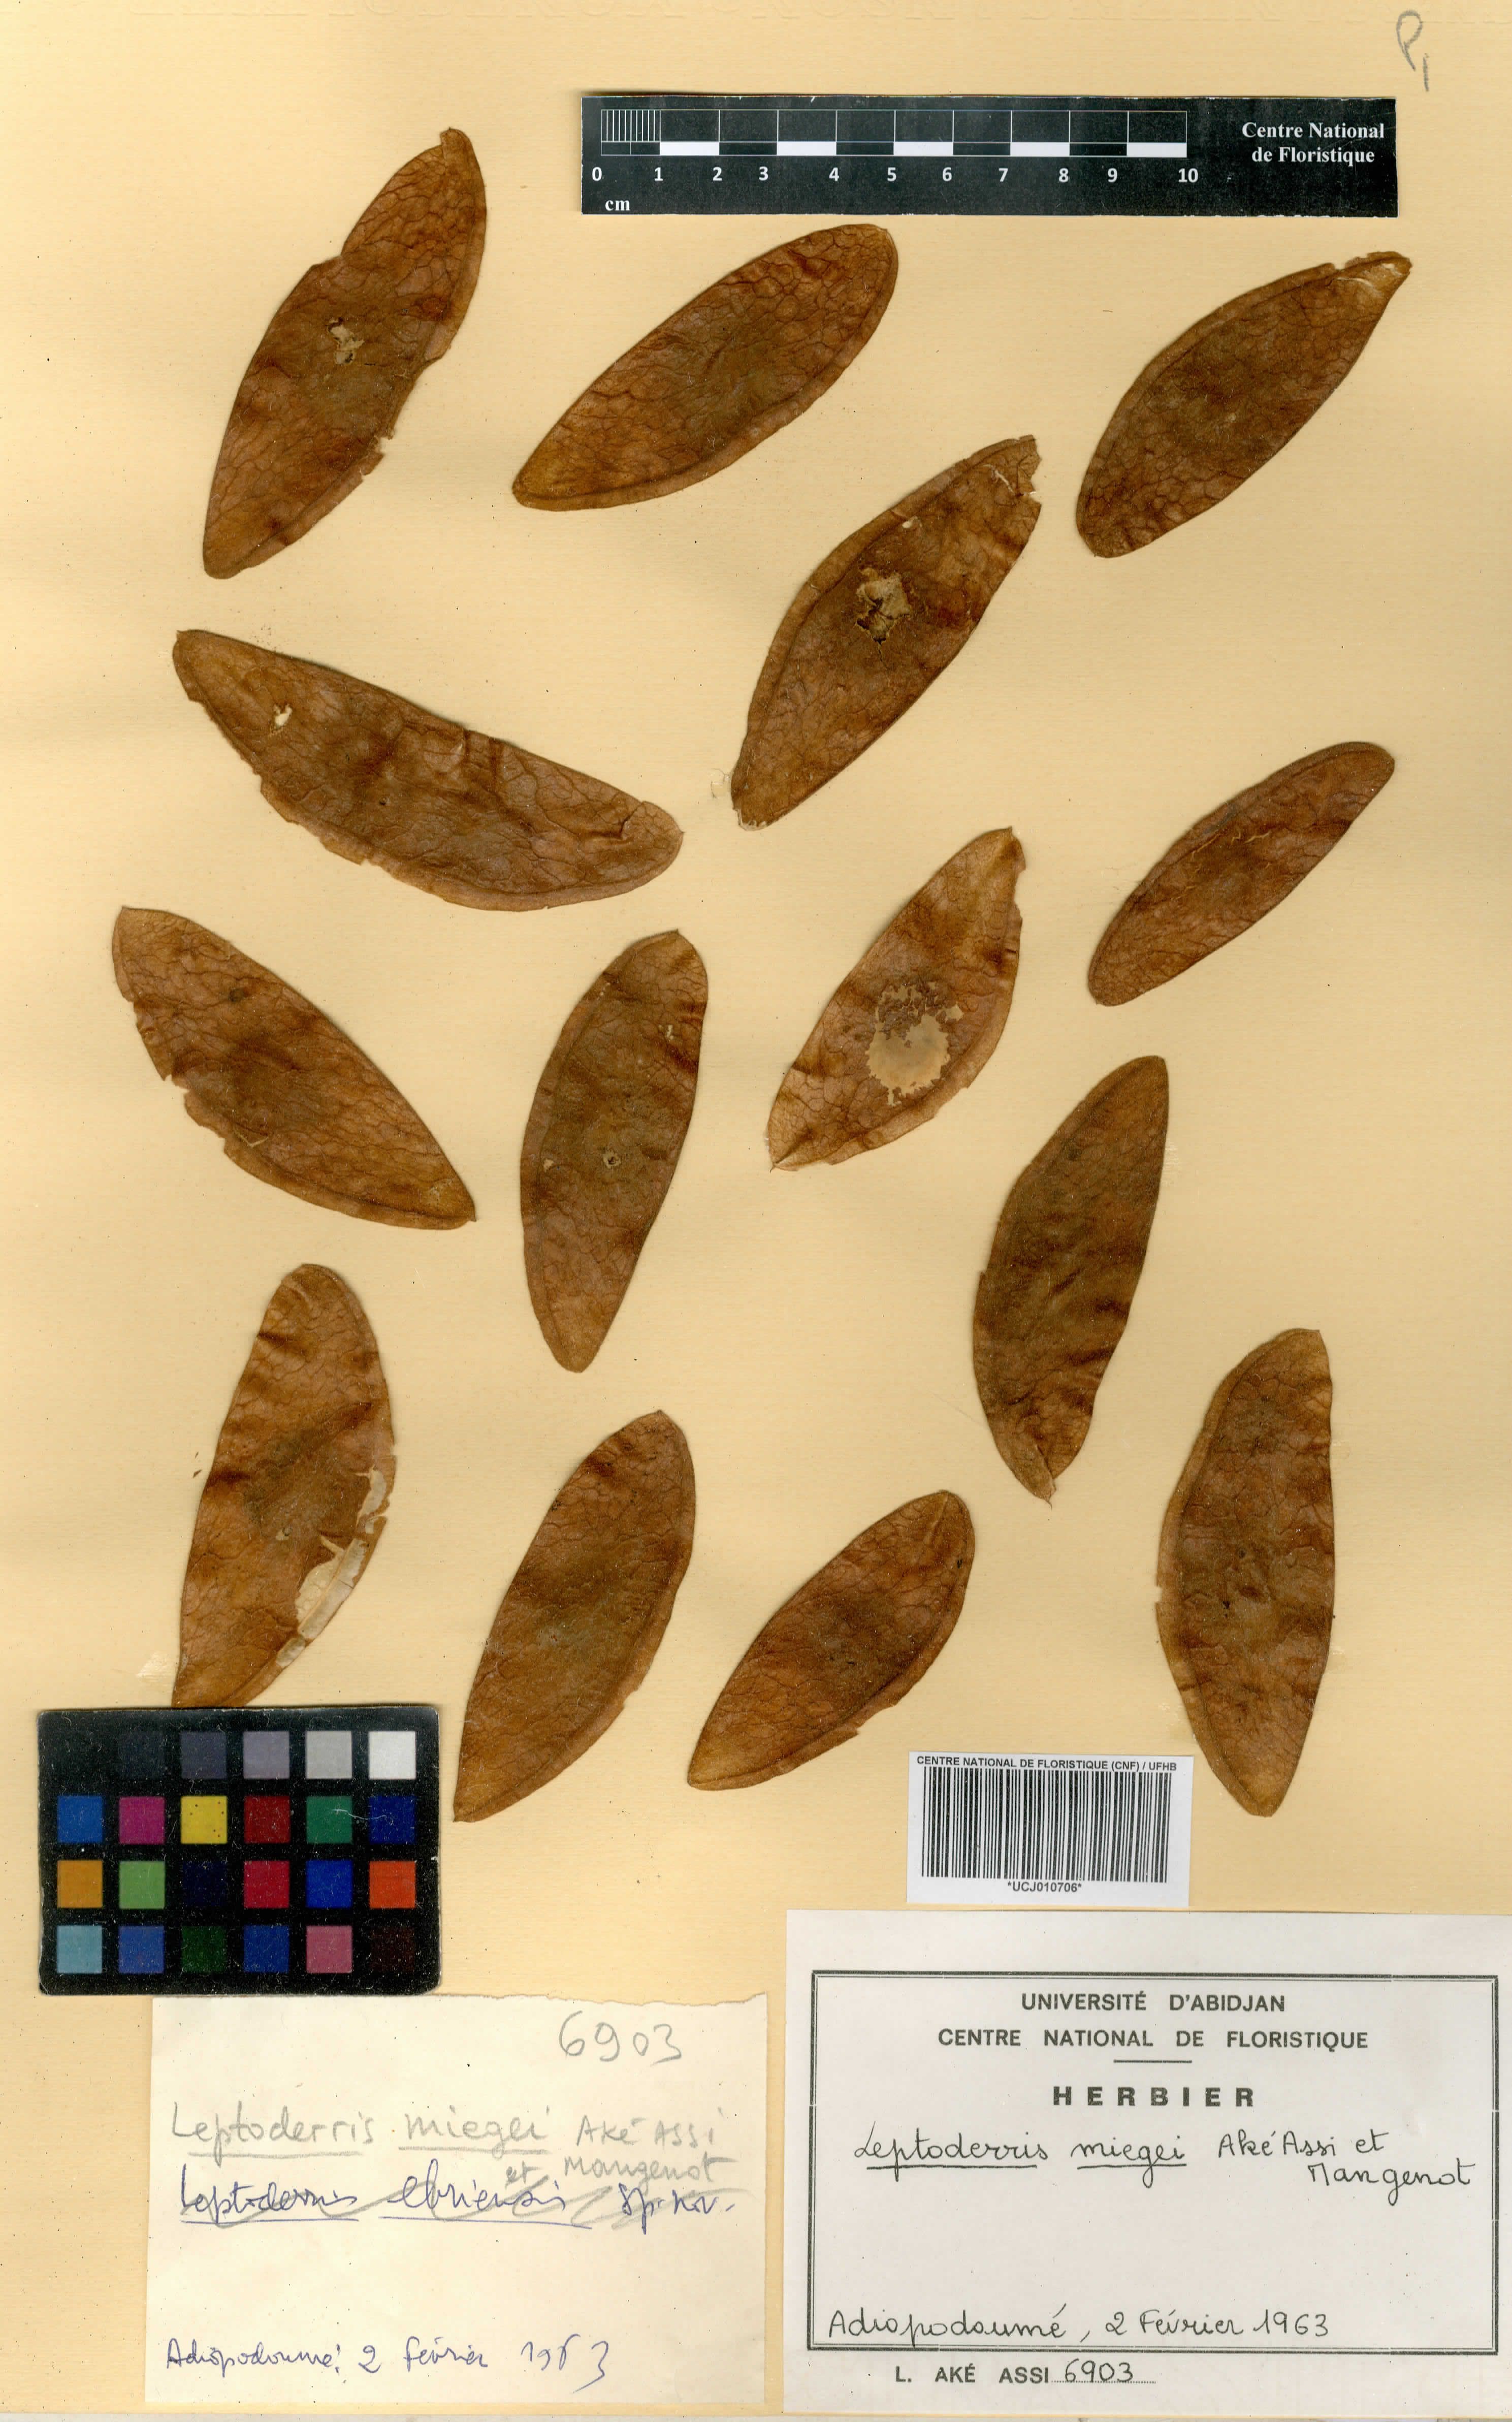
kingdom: Plantae
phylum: Tracheophyta
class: Magnoliopsida
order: Fabales
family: Fabaceae
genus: Leptoderris
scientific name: Leptoderris miegei
